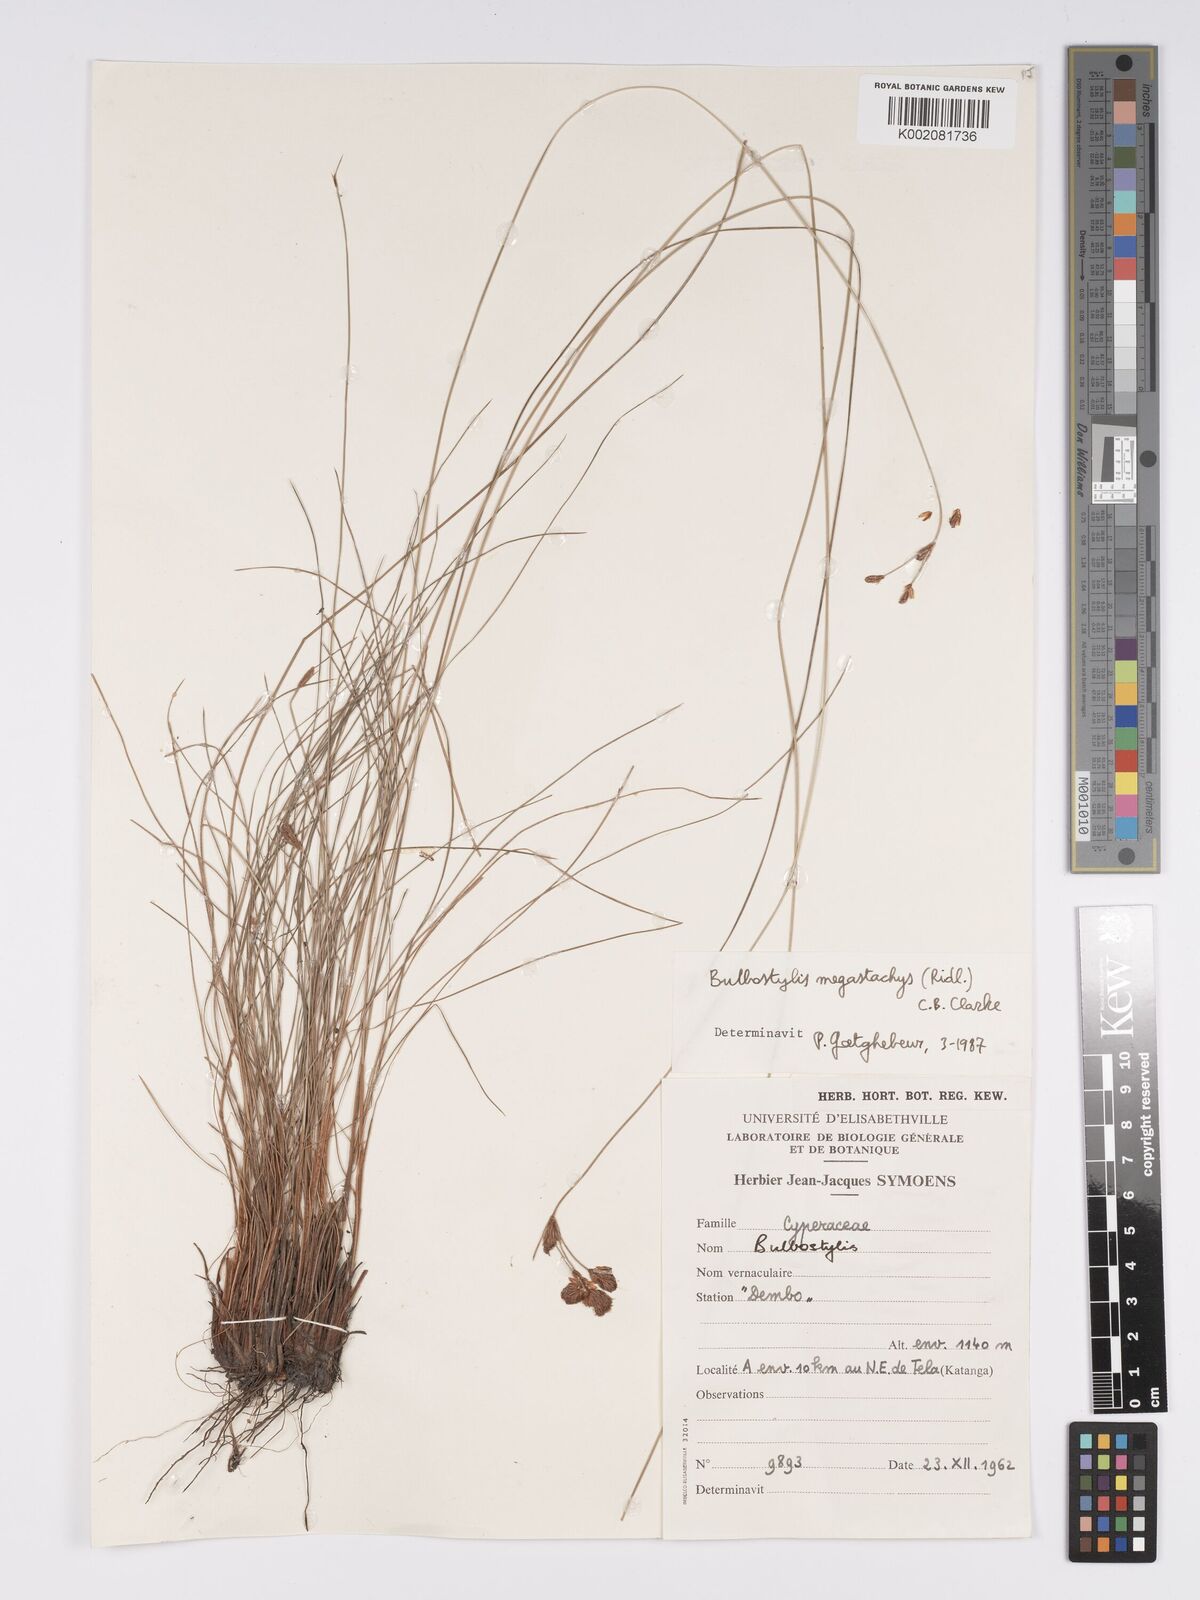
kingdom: Plantae
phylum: Tracheophyta
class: Liliopsida
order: Poales
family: Cyperaceae
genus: Bulbostylis
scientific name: Bulbostylis schoenoides
